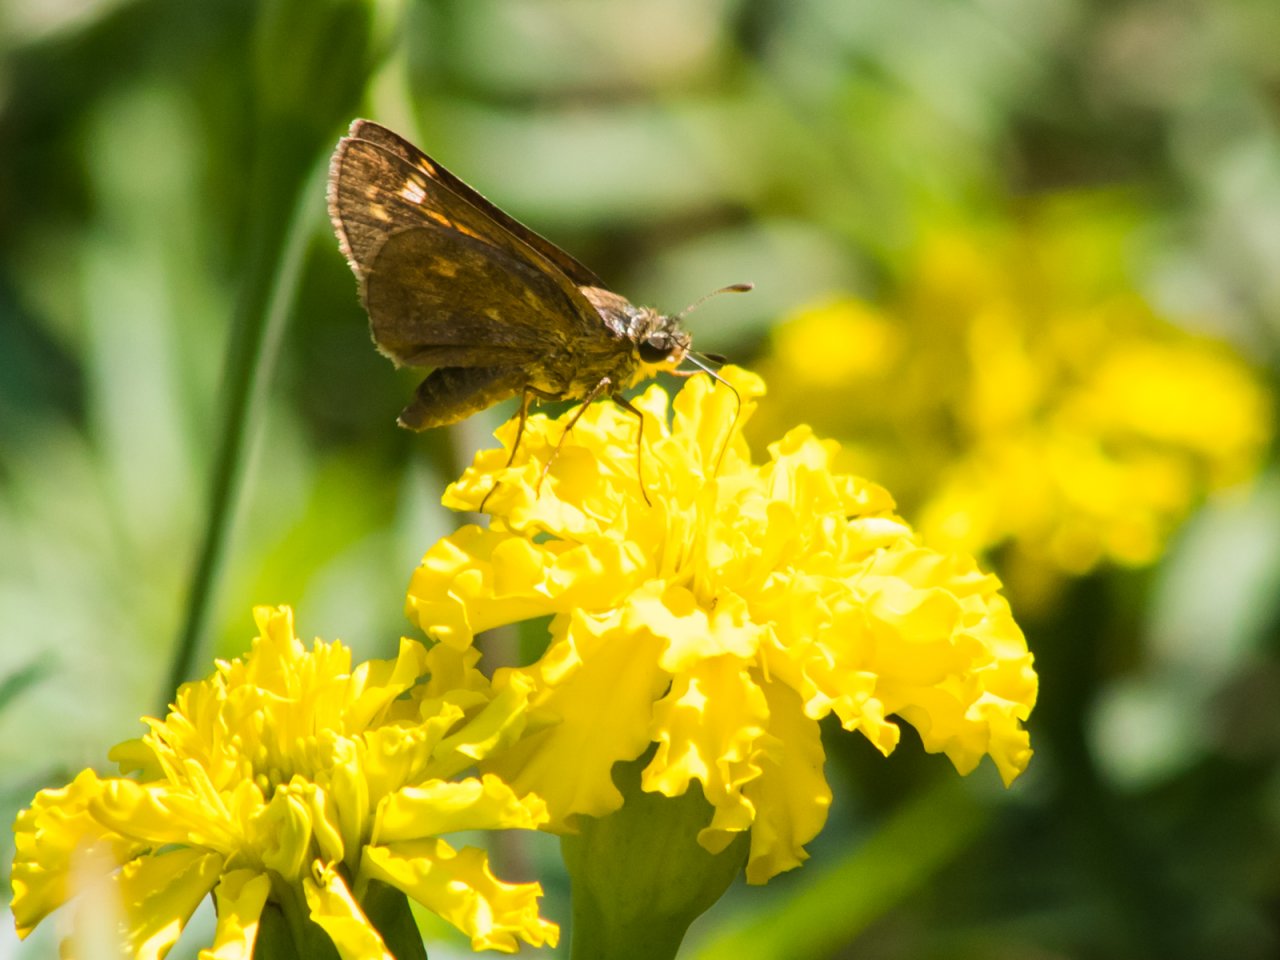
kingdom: Animalia
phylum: Arthropoda
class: Insecta
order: Lepidoptera
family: Hesperiidae
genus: Atalopedes
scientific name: Atalopedes campestris
